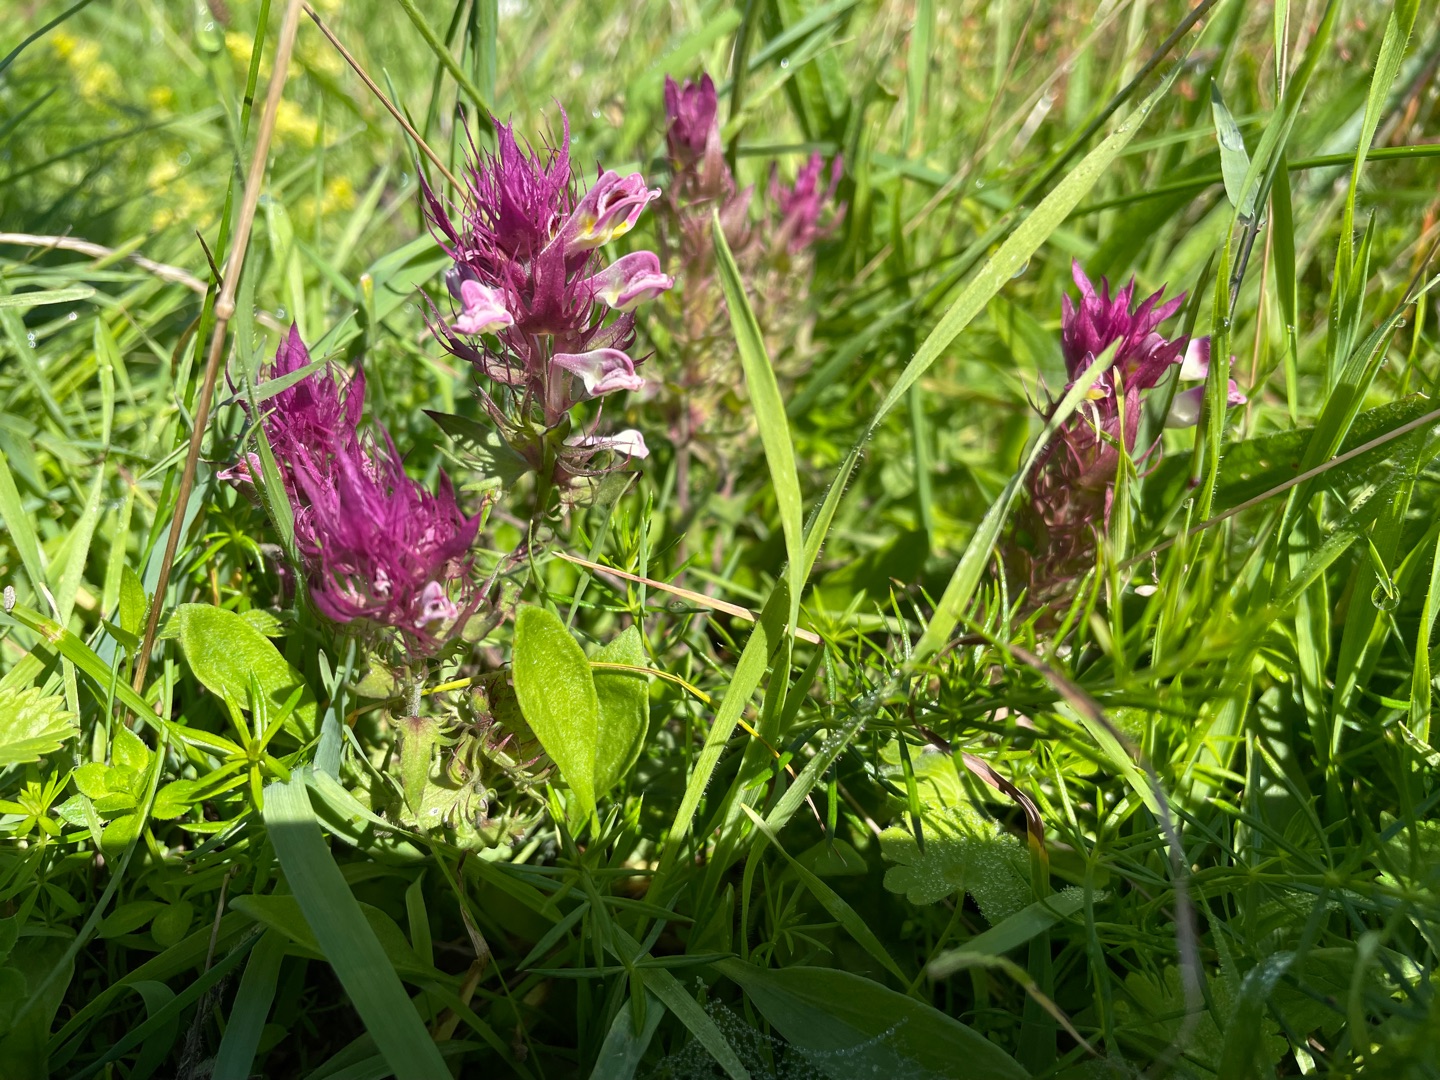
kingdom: Plantae
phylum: Tracheophyta
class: Magnoliopsida
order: Lamiales
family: Orobanchaceae
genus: Melampyrum
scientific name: Melampyrum arvense
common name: Ager-kohvede
